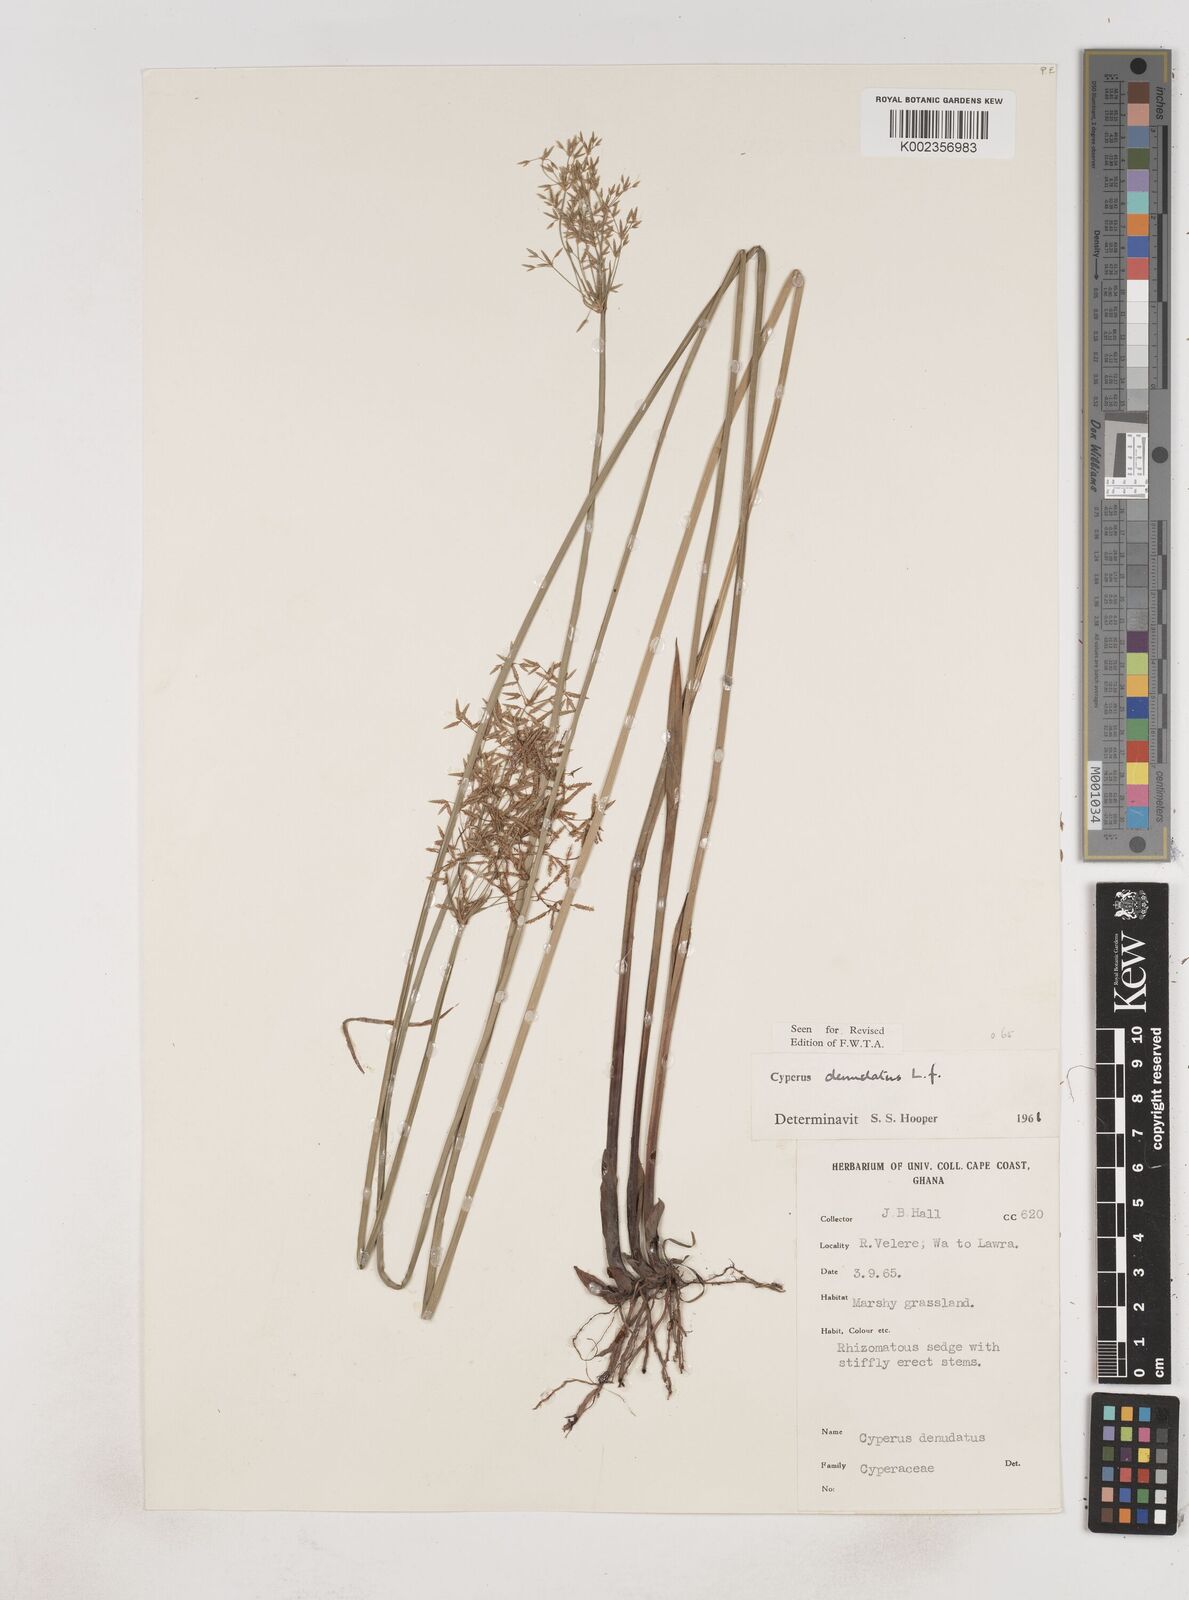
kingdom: Plantae
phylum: Tracheophyta
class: Liliopsida
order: Poales
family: Cyperaceae
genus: Cyperus
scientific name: Cyperus denudatus
